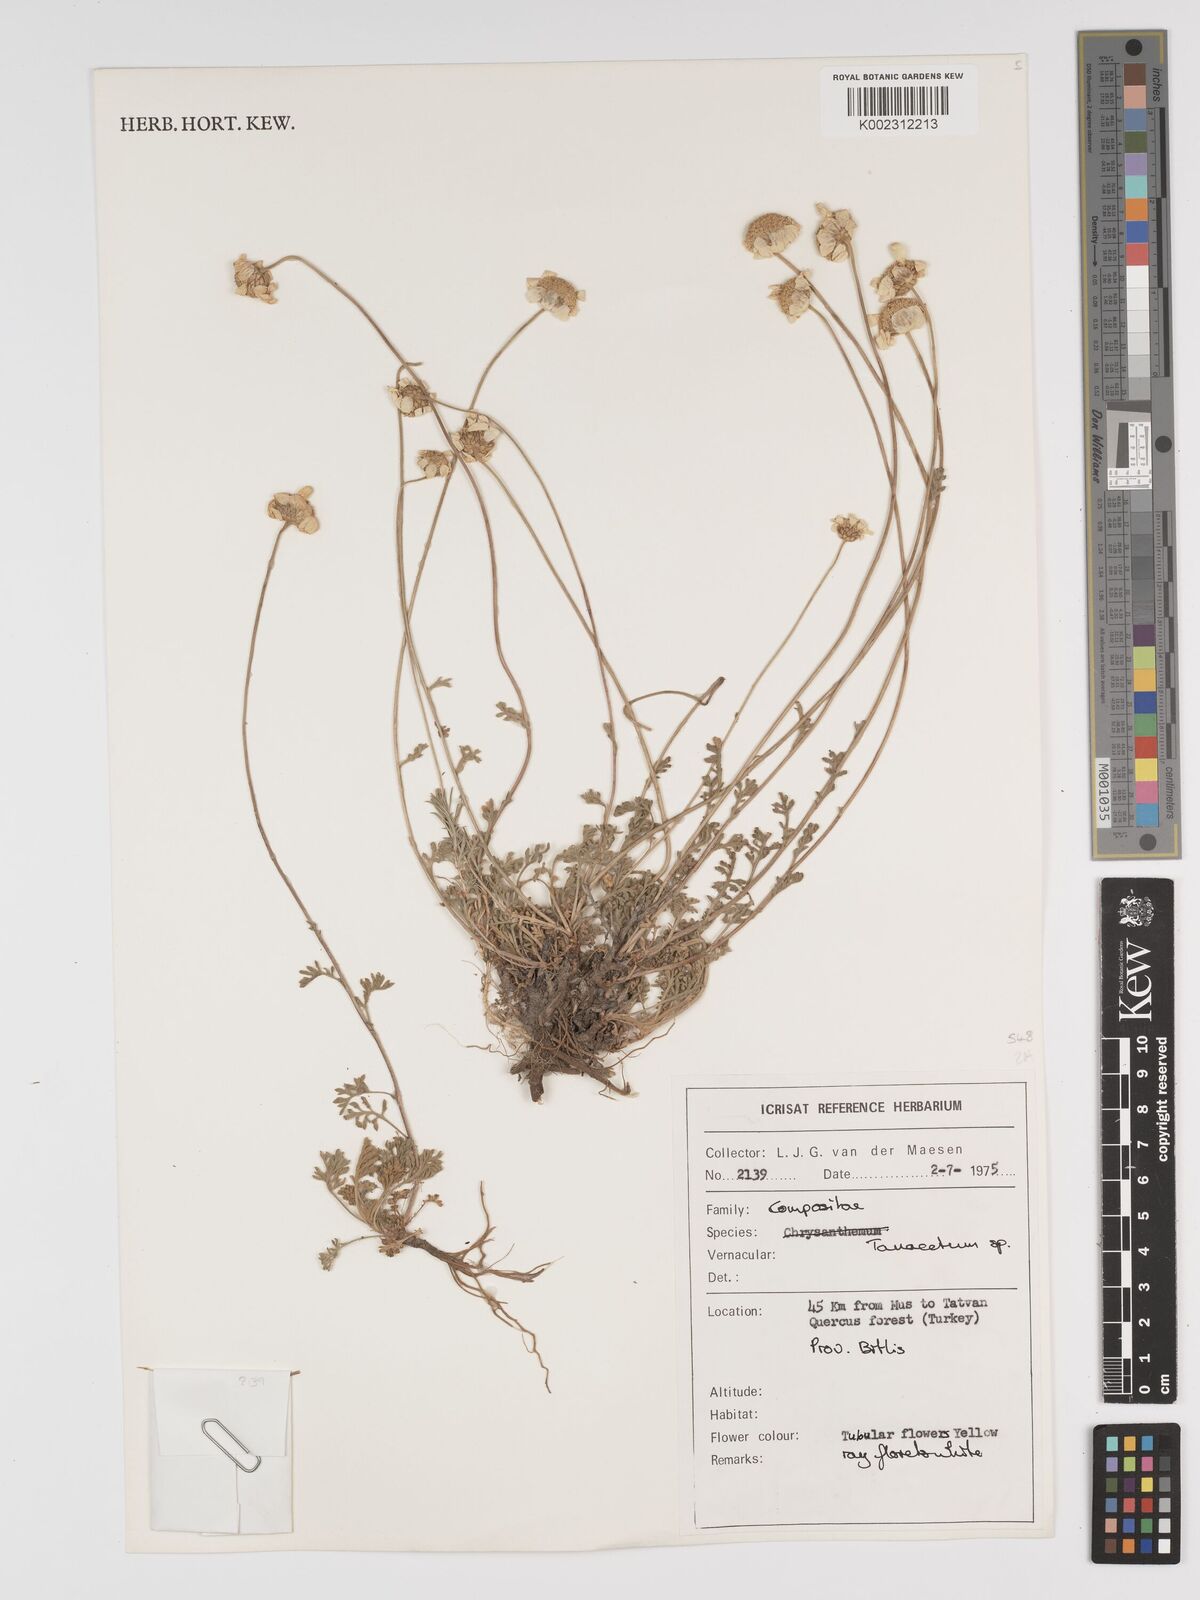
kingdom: Plantae
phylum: Tracheophyta
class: Magnoliopsida
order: Asterales
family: Asteraceae
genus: Tanacetum
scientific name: Tanacetum
